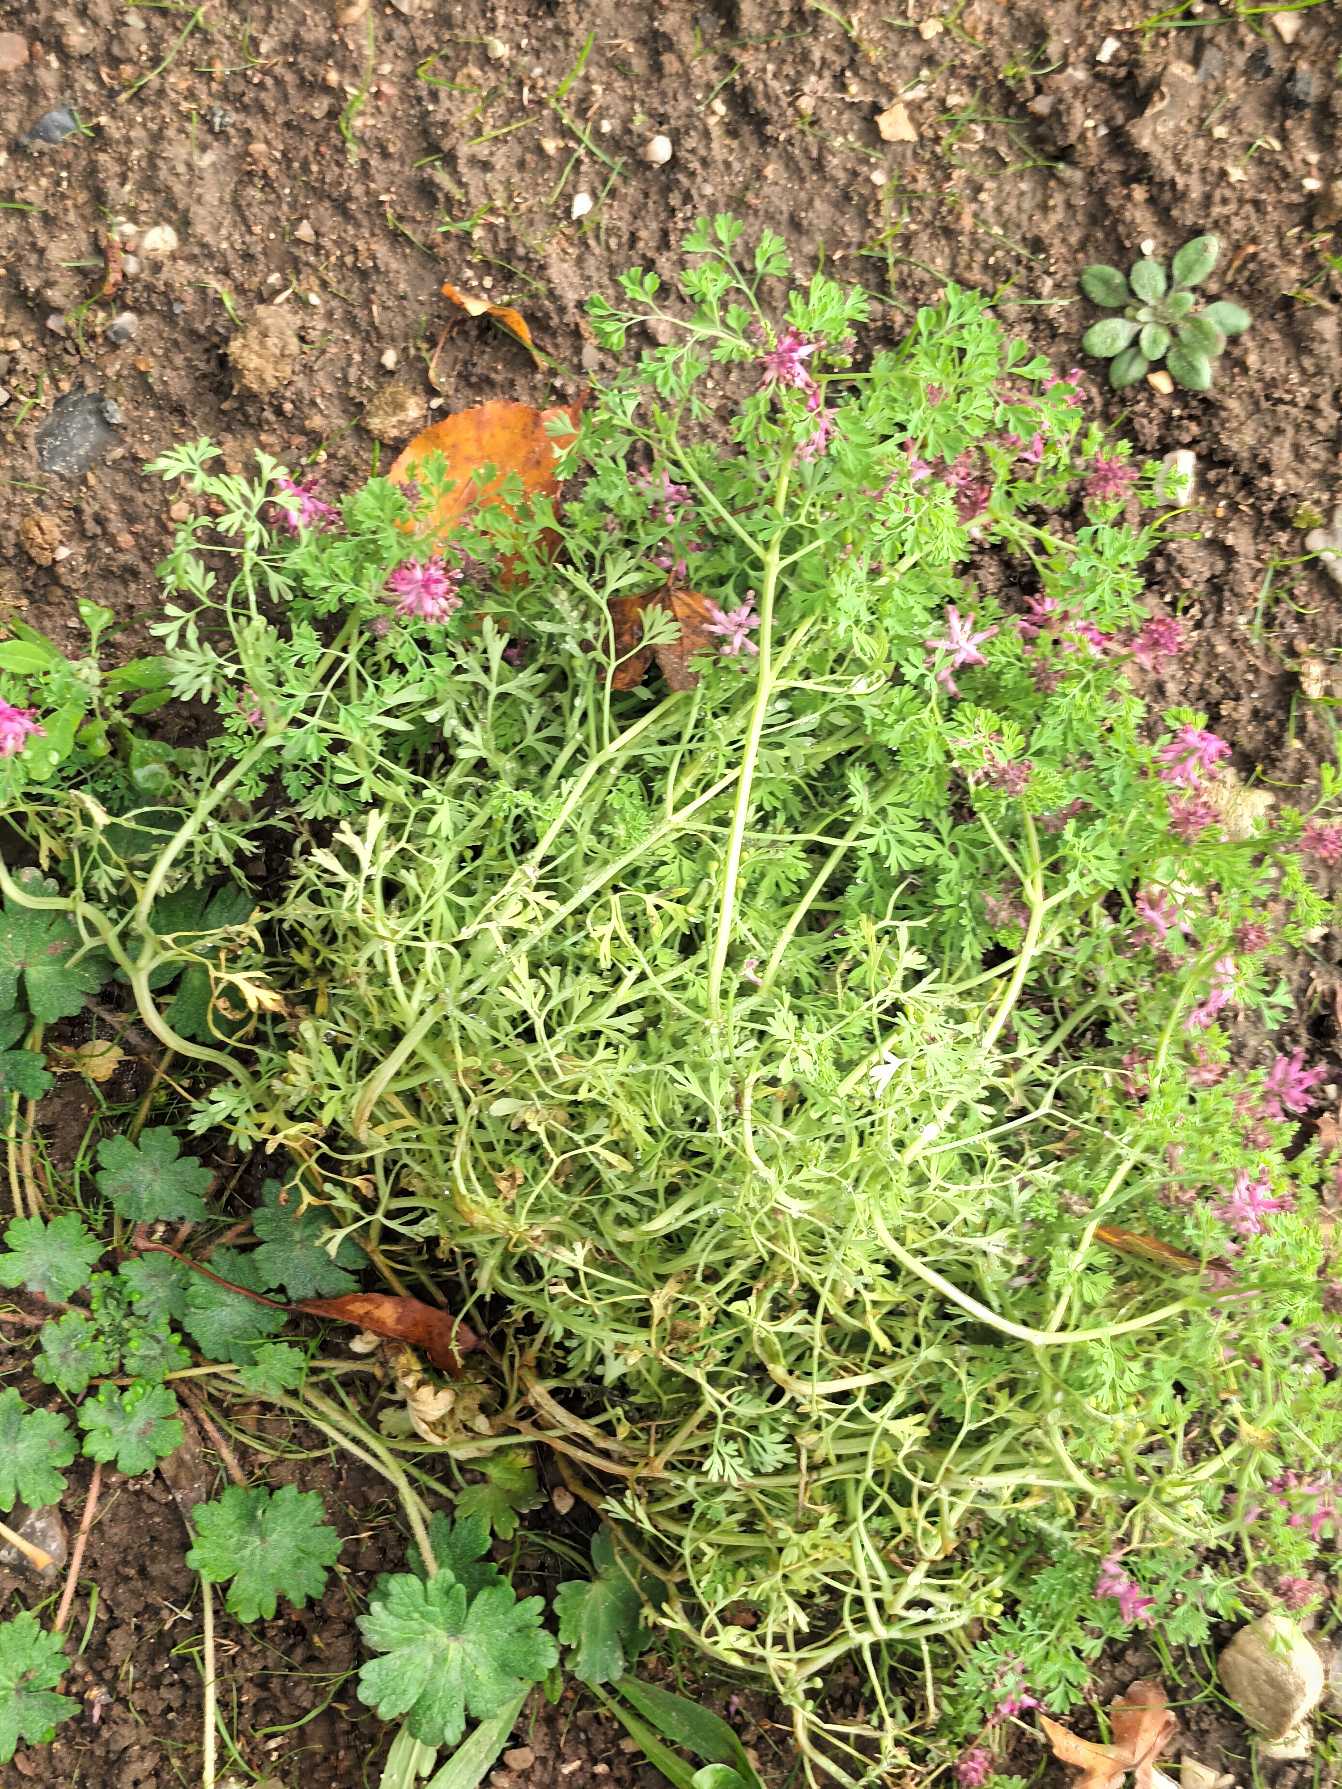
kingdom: Plantae
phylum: Tracheophyta
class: Magnoliopsida
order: Ranunculales
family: Papaveraceae
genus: Fumaria
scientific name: Fumaria officinalis
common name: Læge-jordrøg
